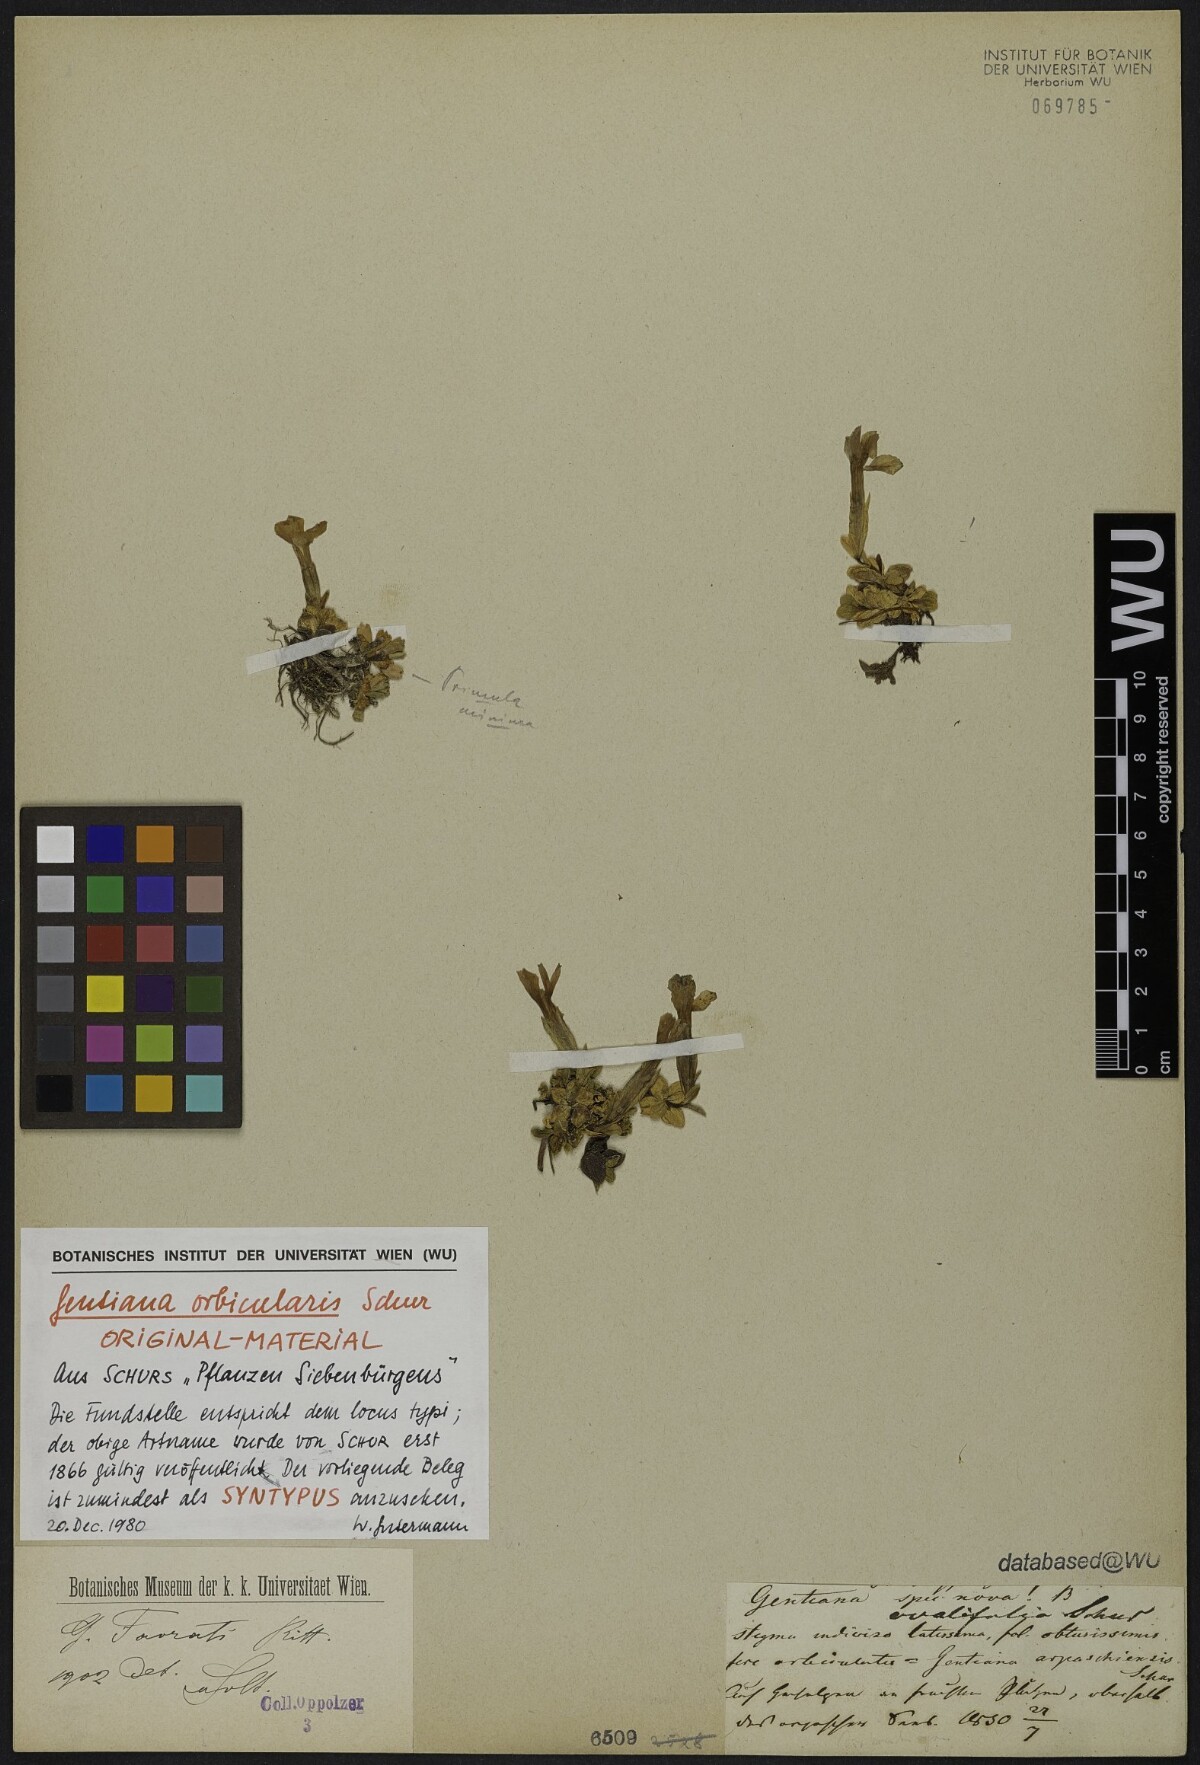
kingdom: Plantae
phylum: Tracheophyta
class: Magnoliopsida
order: Gentianales
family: Gentianaceae
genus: Gentiana
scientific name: Gentiana orbicularis
